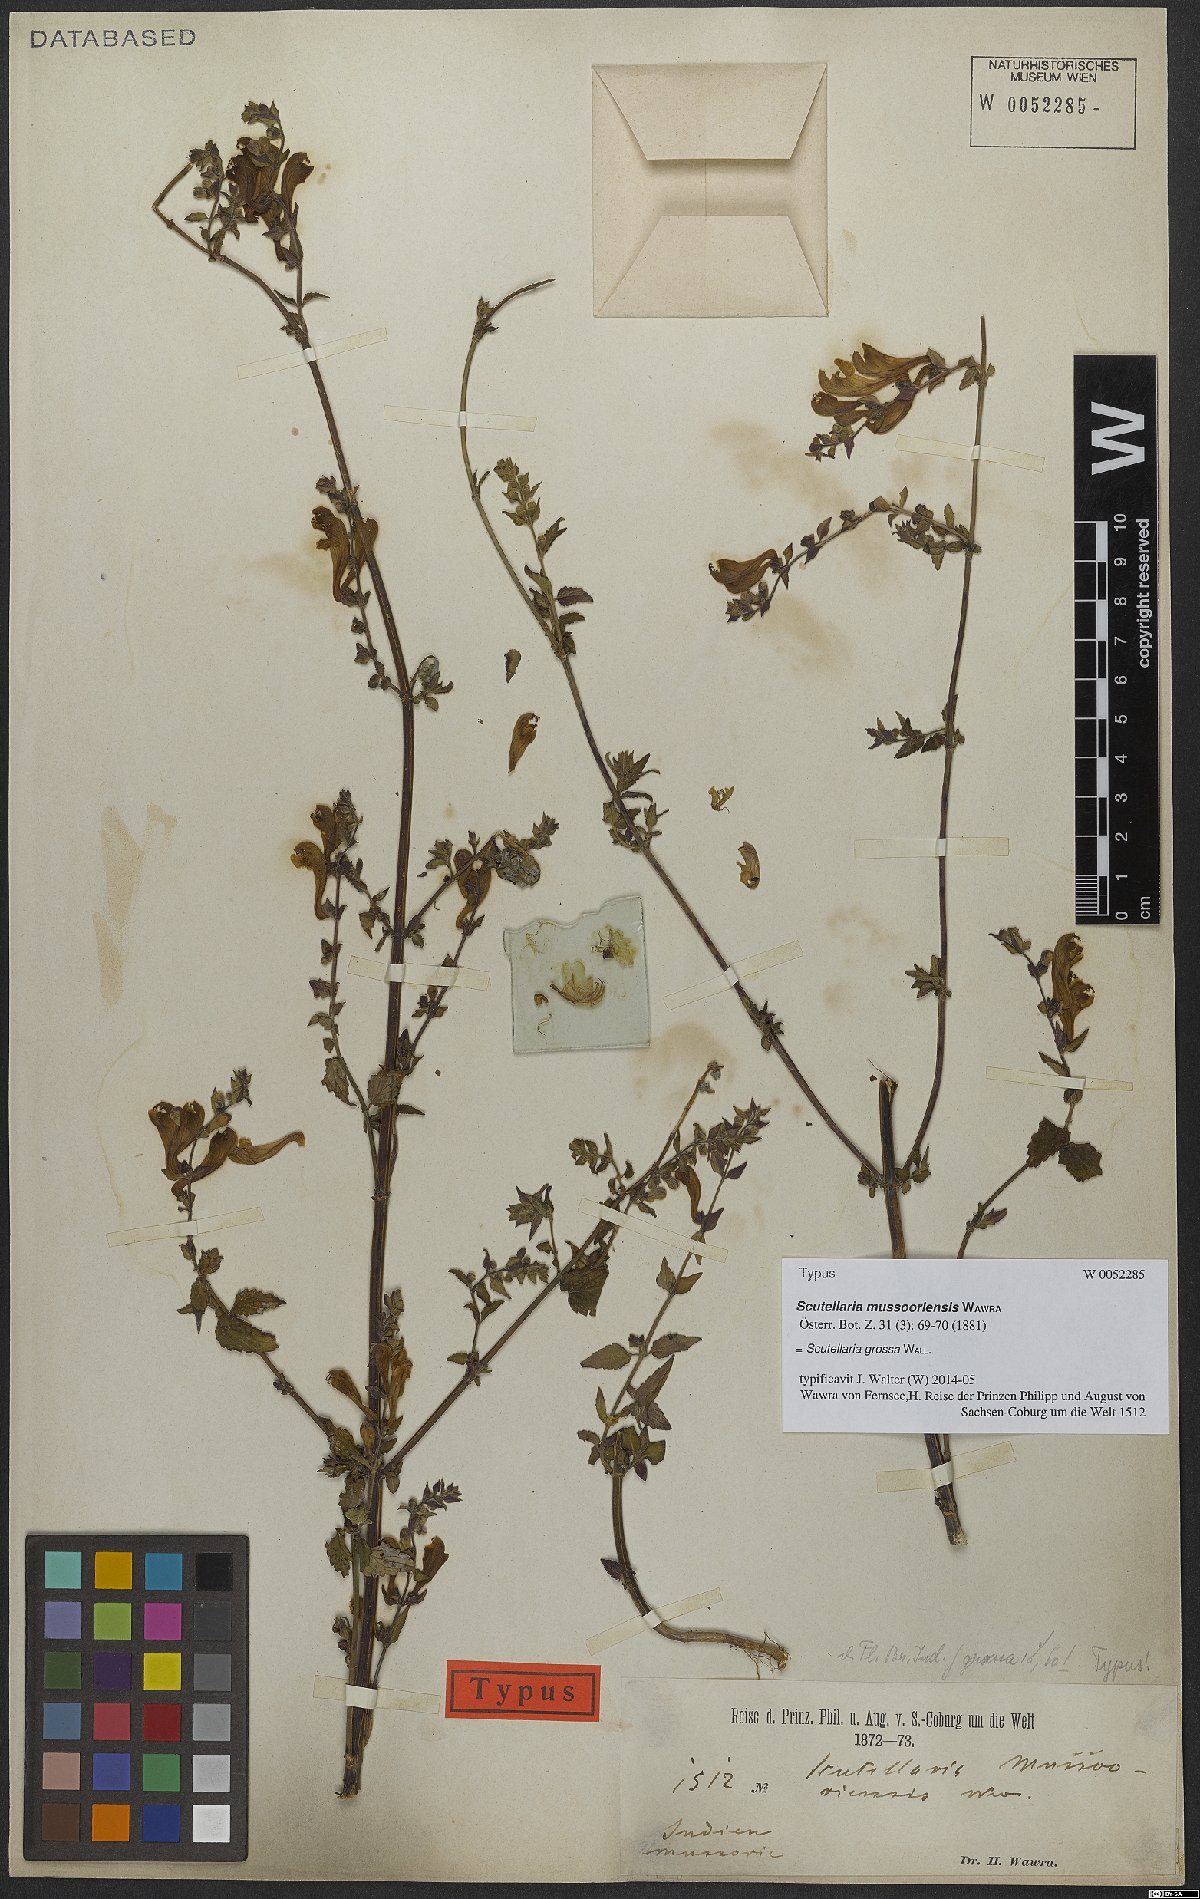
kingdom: Plantae
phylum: Tracheophyta
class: Magnoliopsida
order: Lamiales
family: Lamiaceae
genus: Scutellaria
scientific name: Scutellaria grossa
